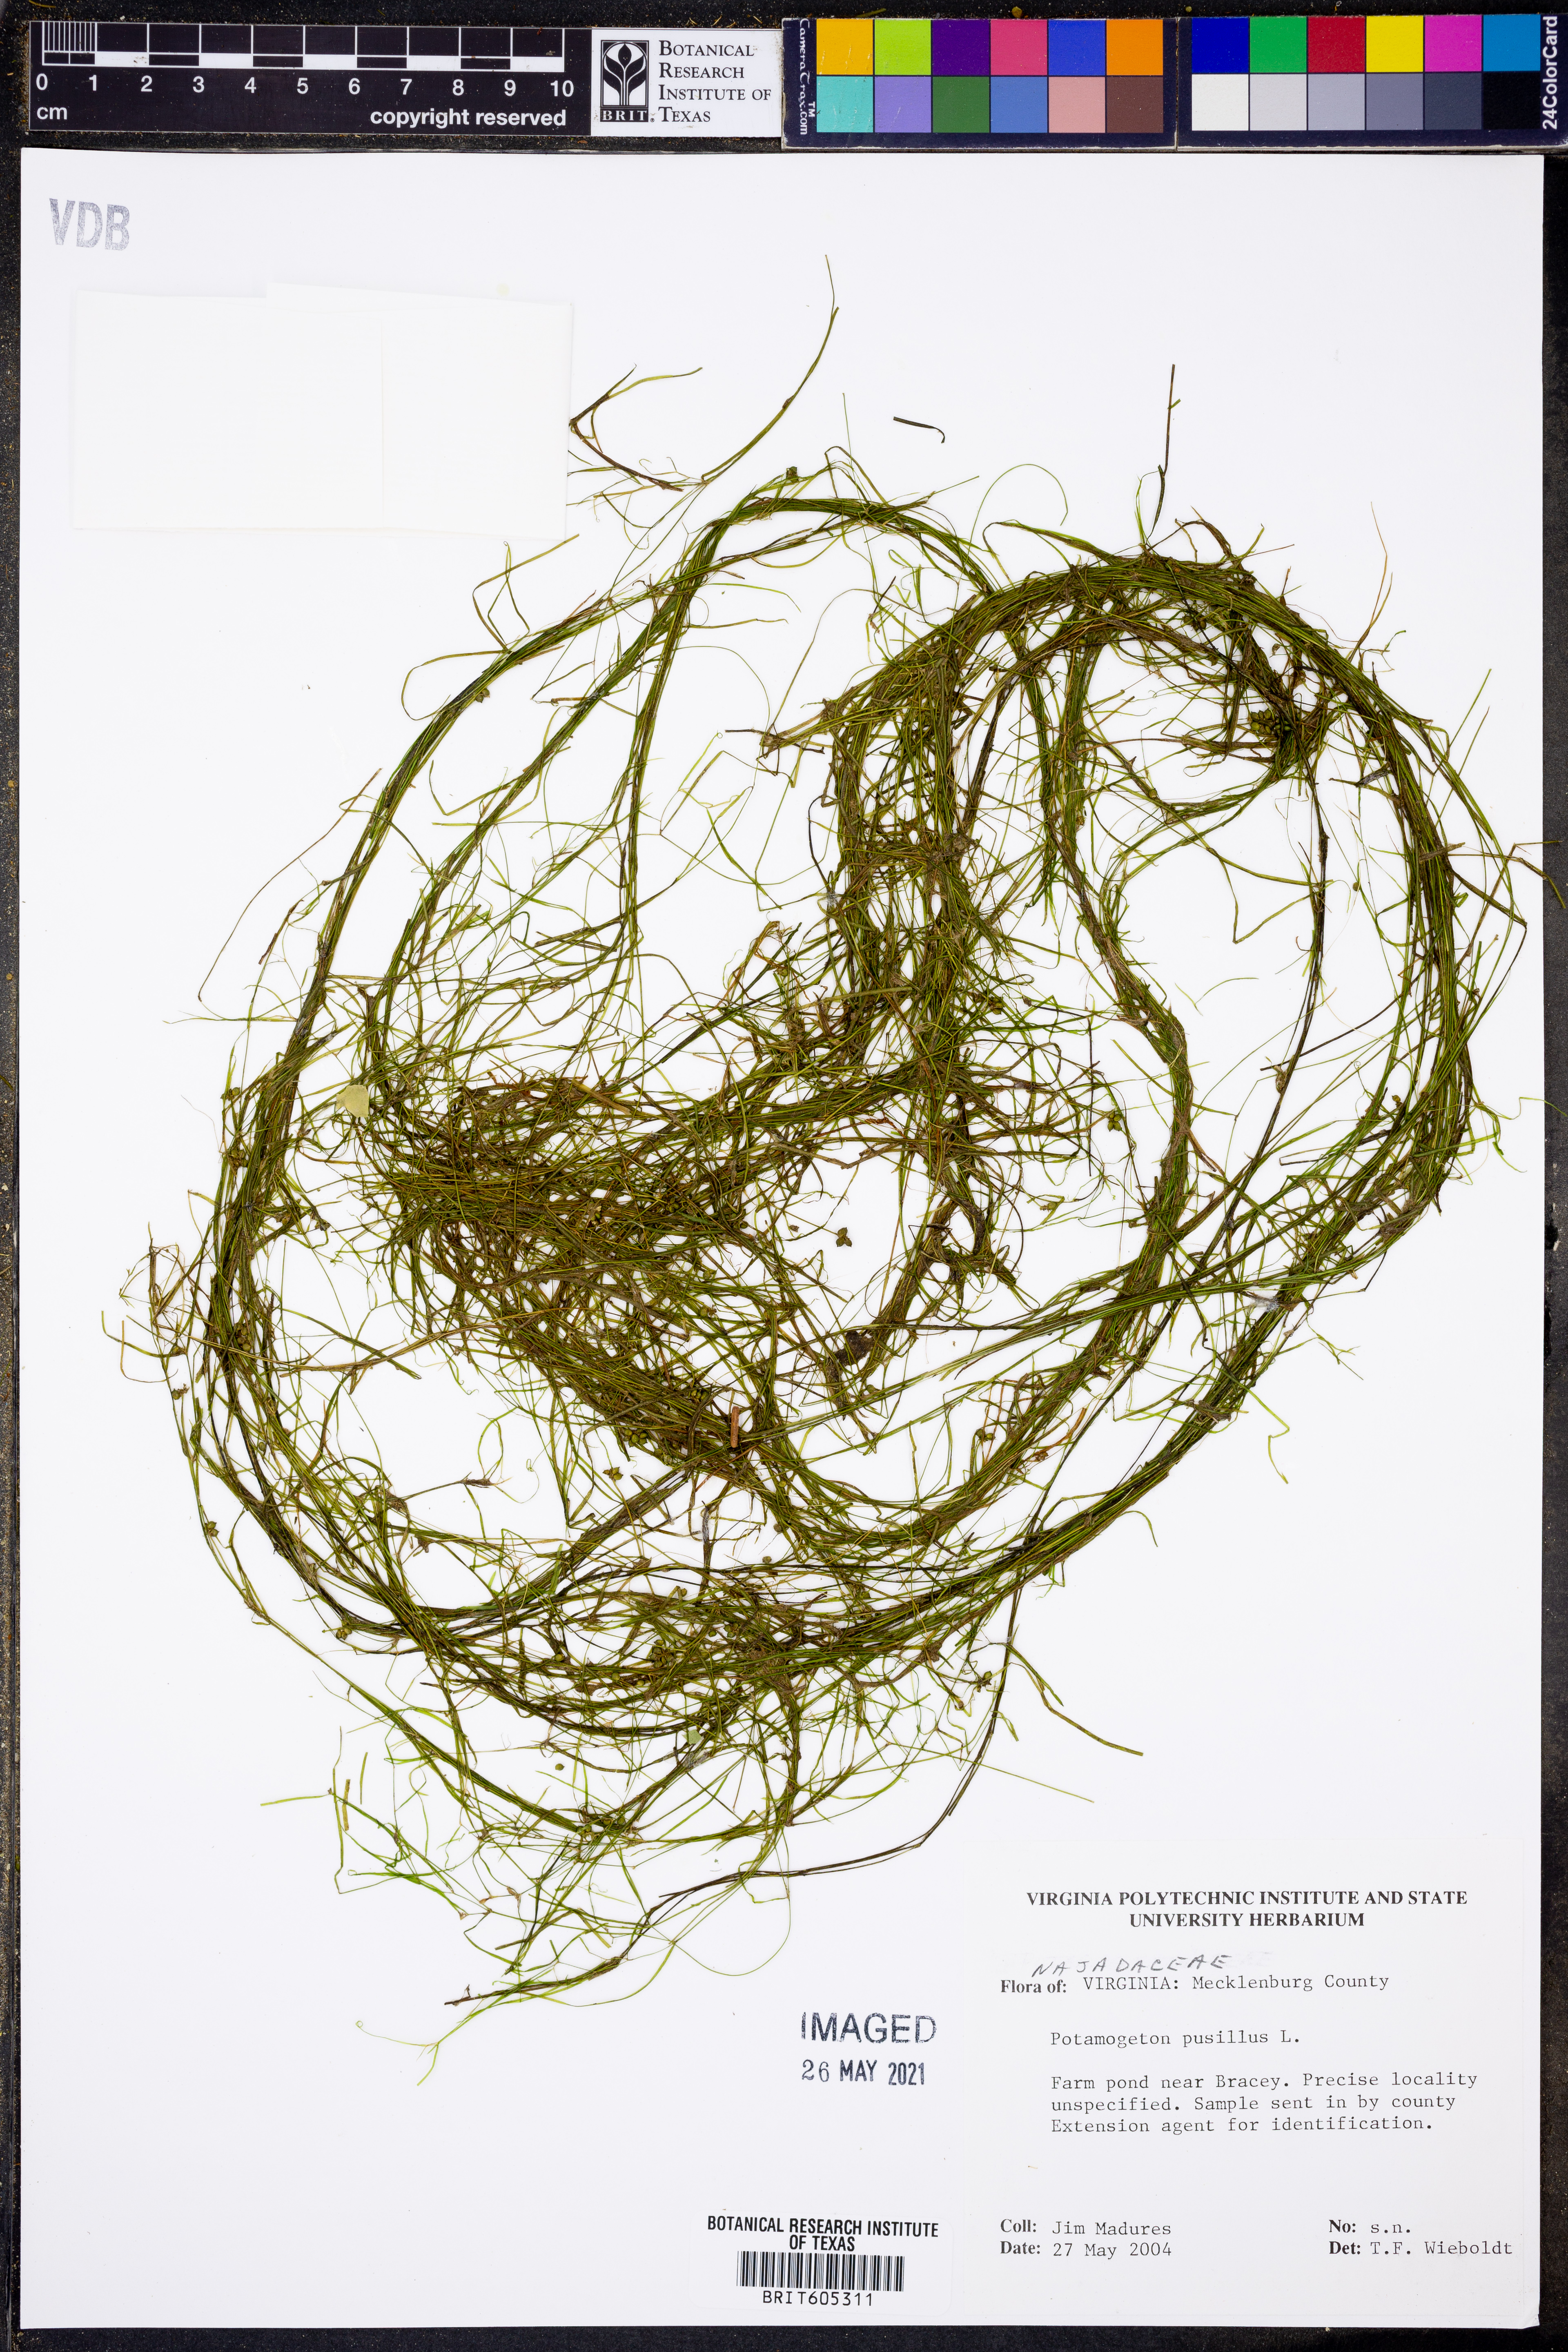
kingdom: Plantae
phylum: Tracheophyta
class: Liliopsida
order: Alismatales
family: Potamogetonaceae
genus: Potamogeton
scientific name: Potamogeton pusillus
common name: Lesser pondweed
